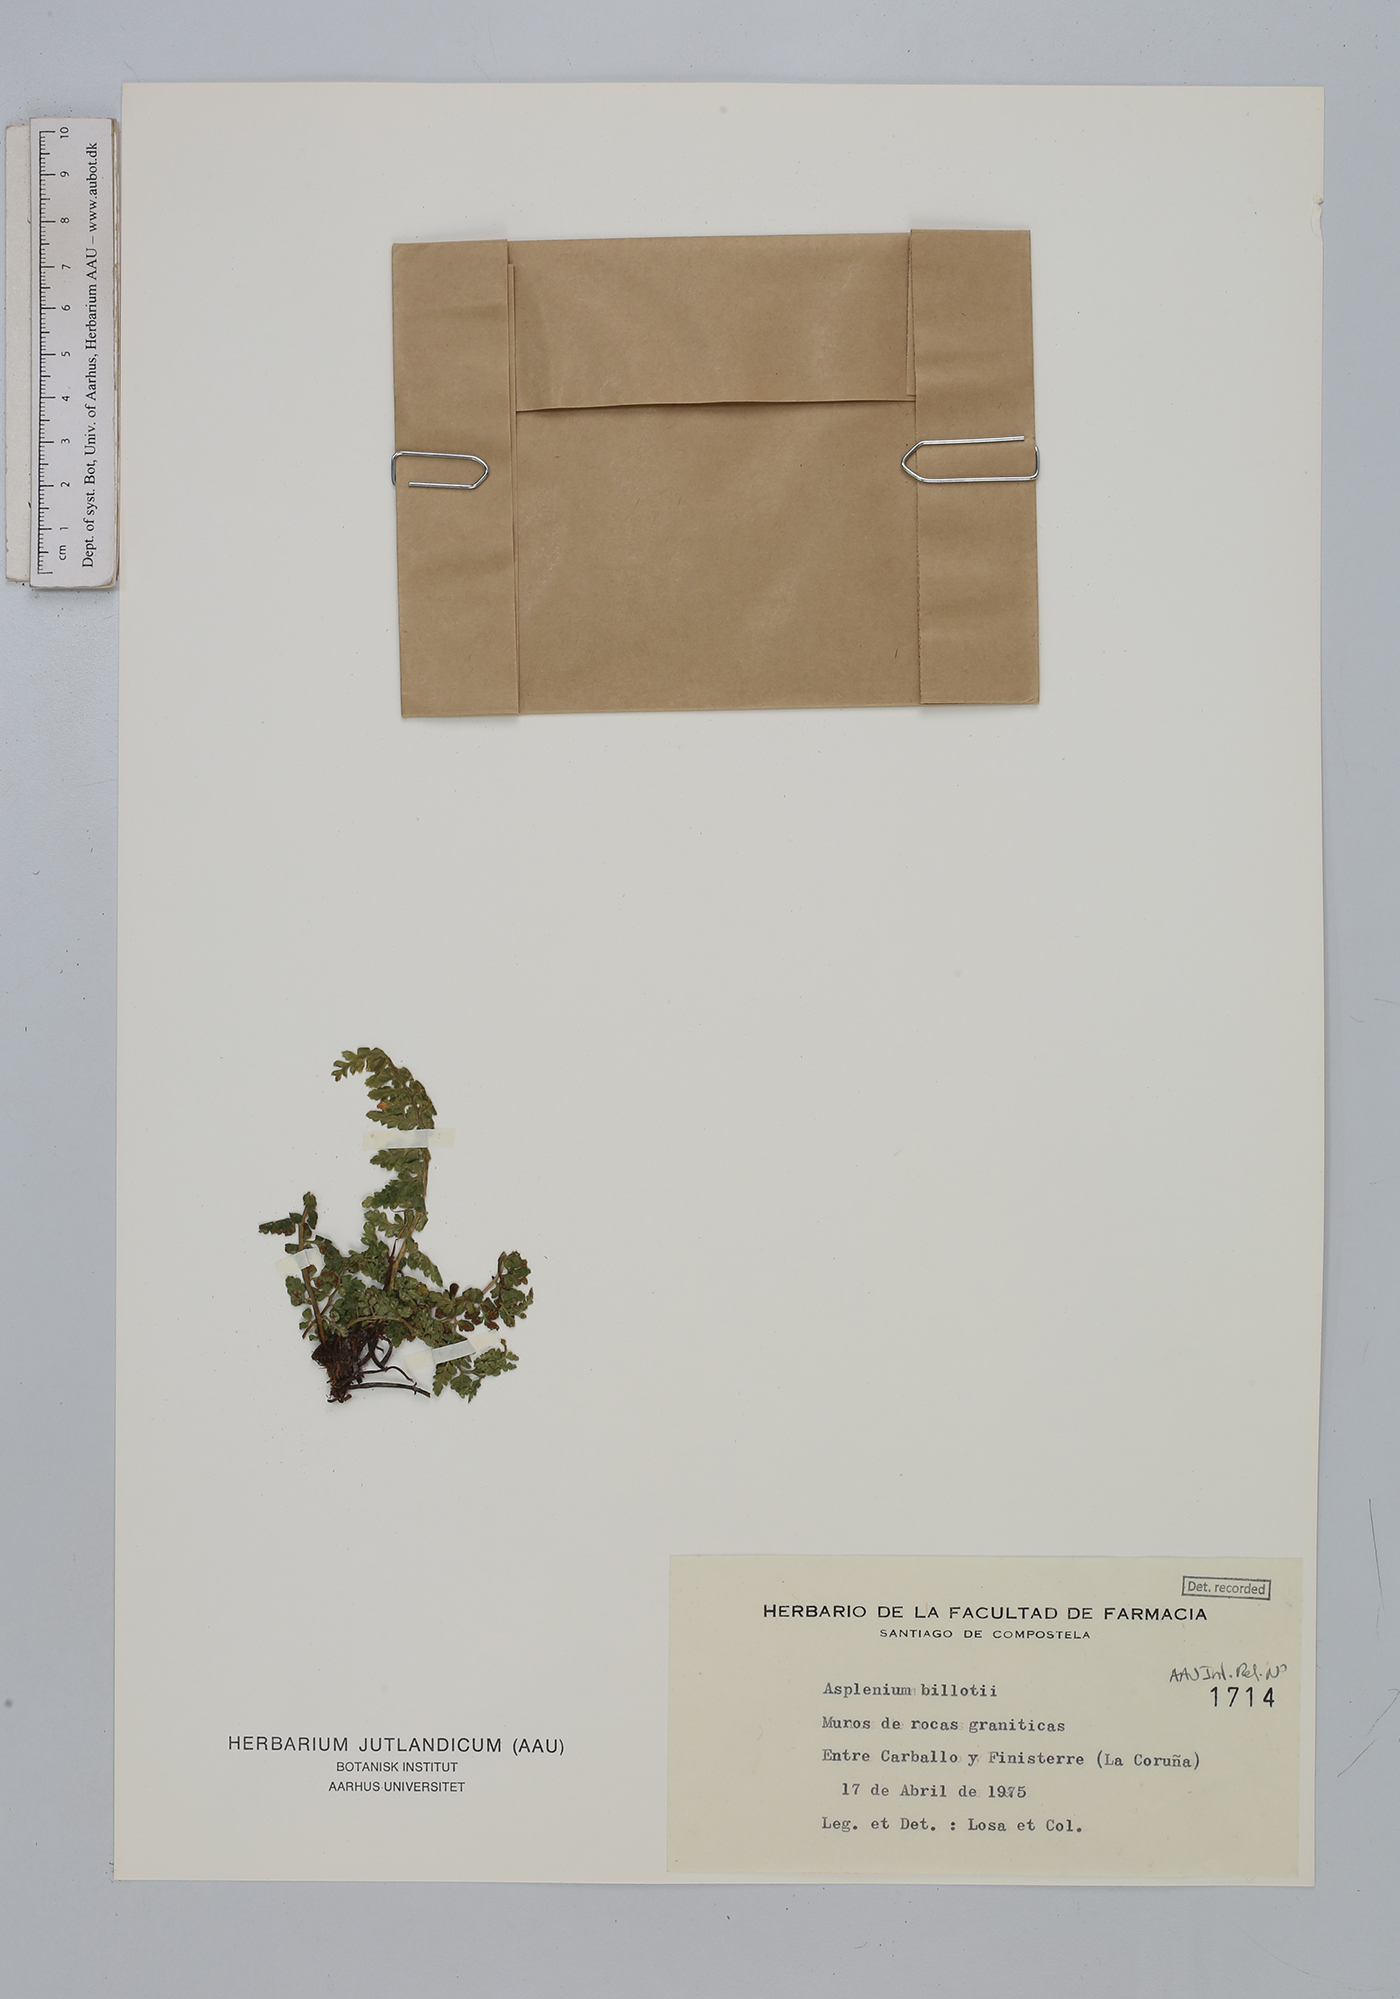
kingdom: Plantae
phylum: Tracheophyta
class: Polypodiopsida
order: Polypodiales
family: Aspleniaceae
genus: Asplenium
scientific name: Asplenium obovatum
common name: Lanceolate spleenwort
